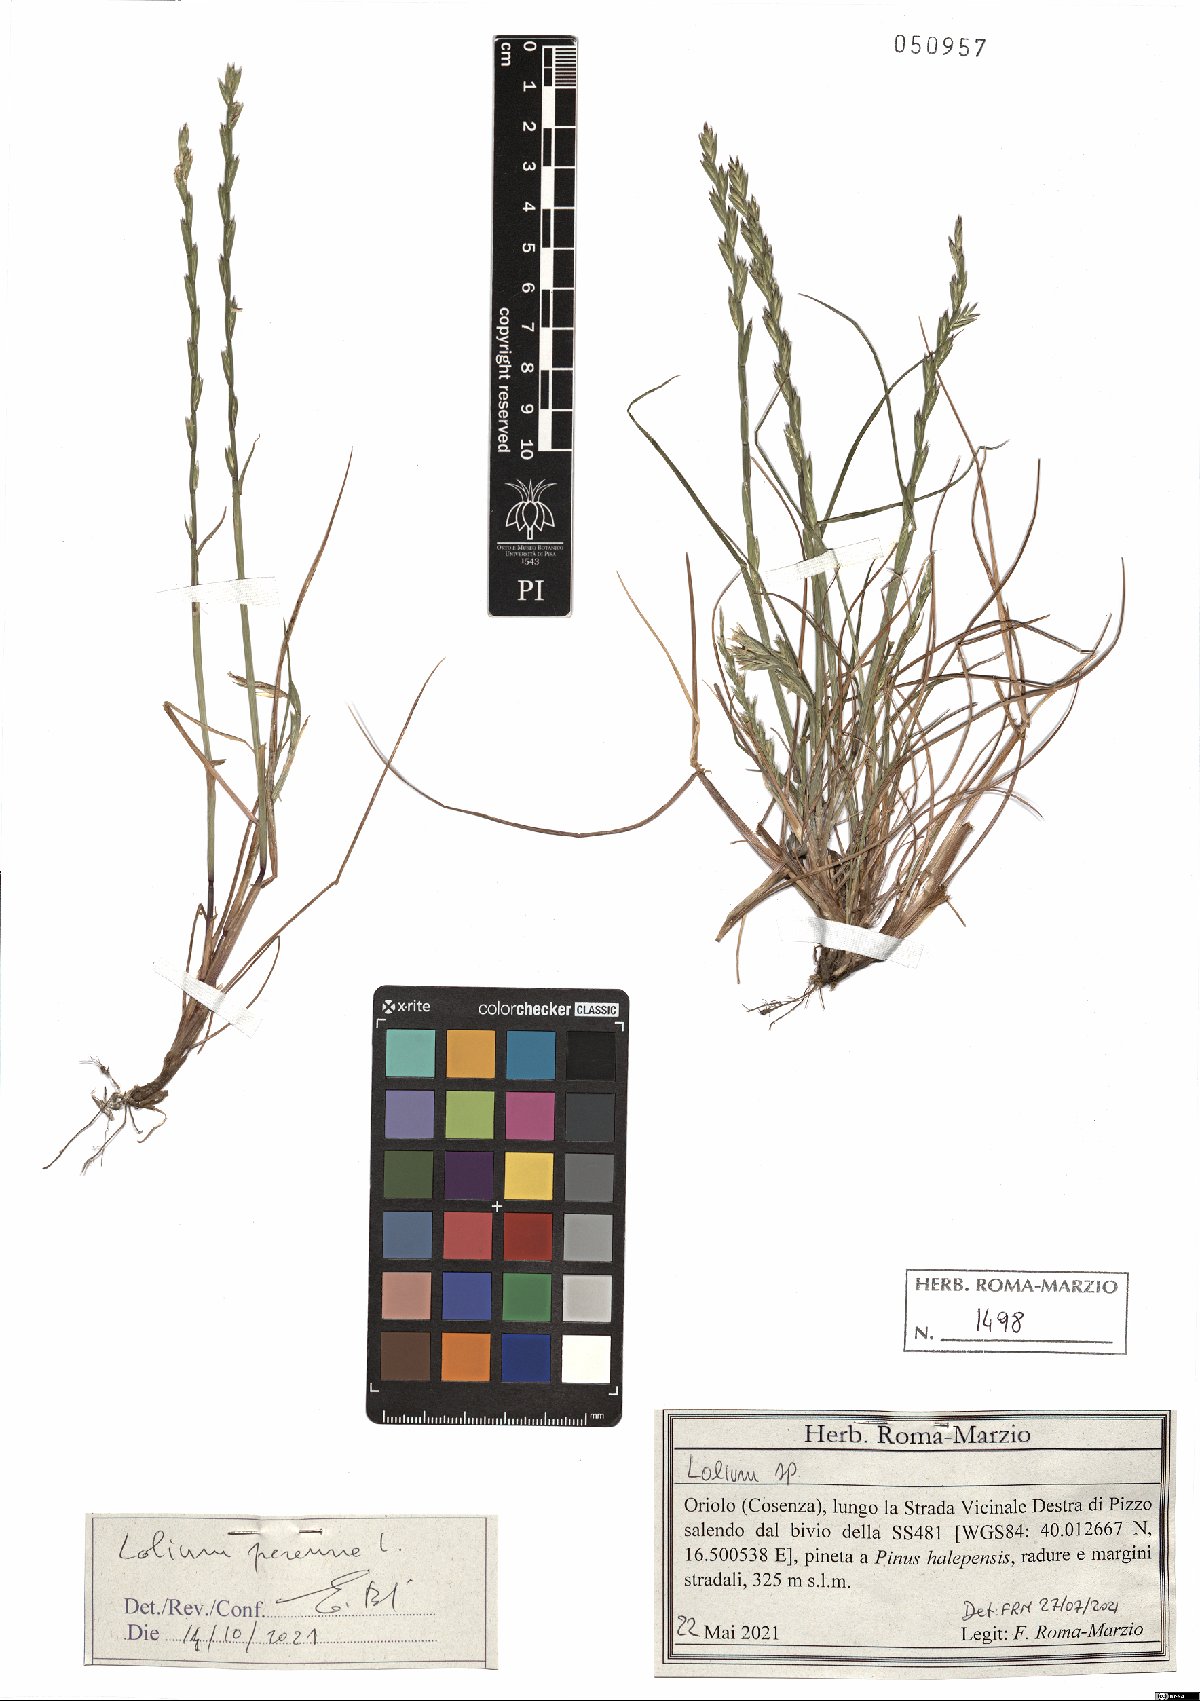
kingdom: Plantae
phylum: Tracheophyta
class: Liliopsida
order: Poales
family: Poaceae
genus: Lolium
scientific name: Lolium perenne
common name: Perennial ryegrass
